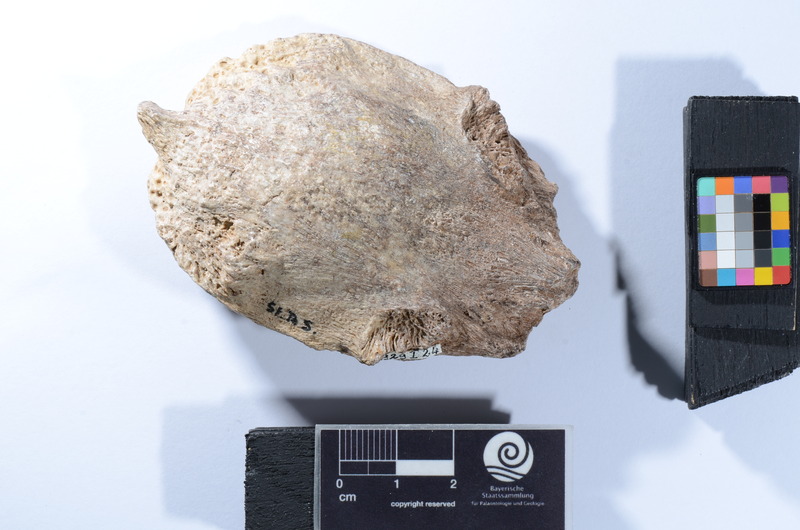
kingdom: Animalia
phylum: Chordata
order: Anguilliformes
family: Phyllodontidae
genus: Paralbula
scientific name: Paralbula Egertonia stromeri
